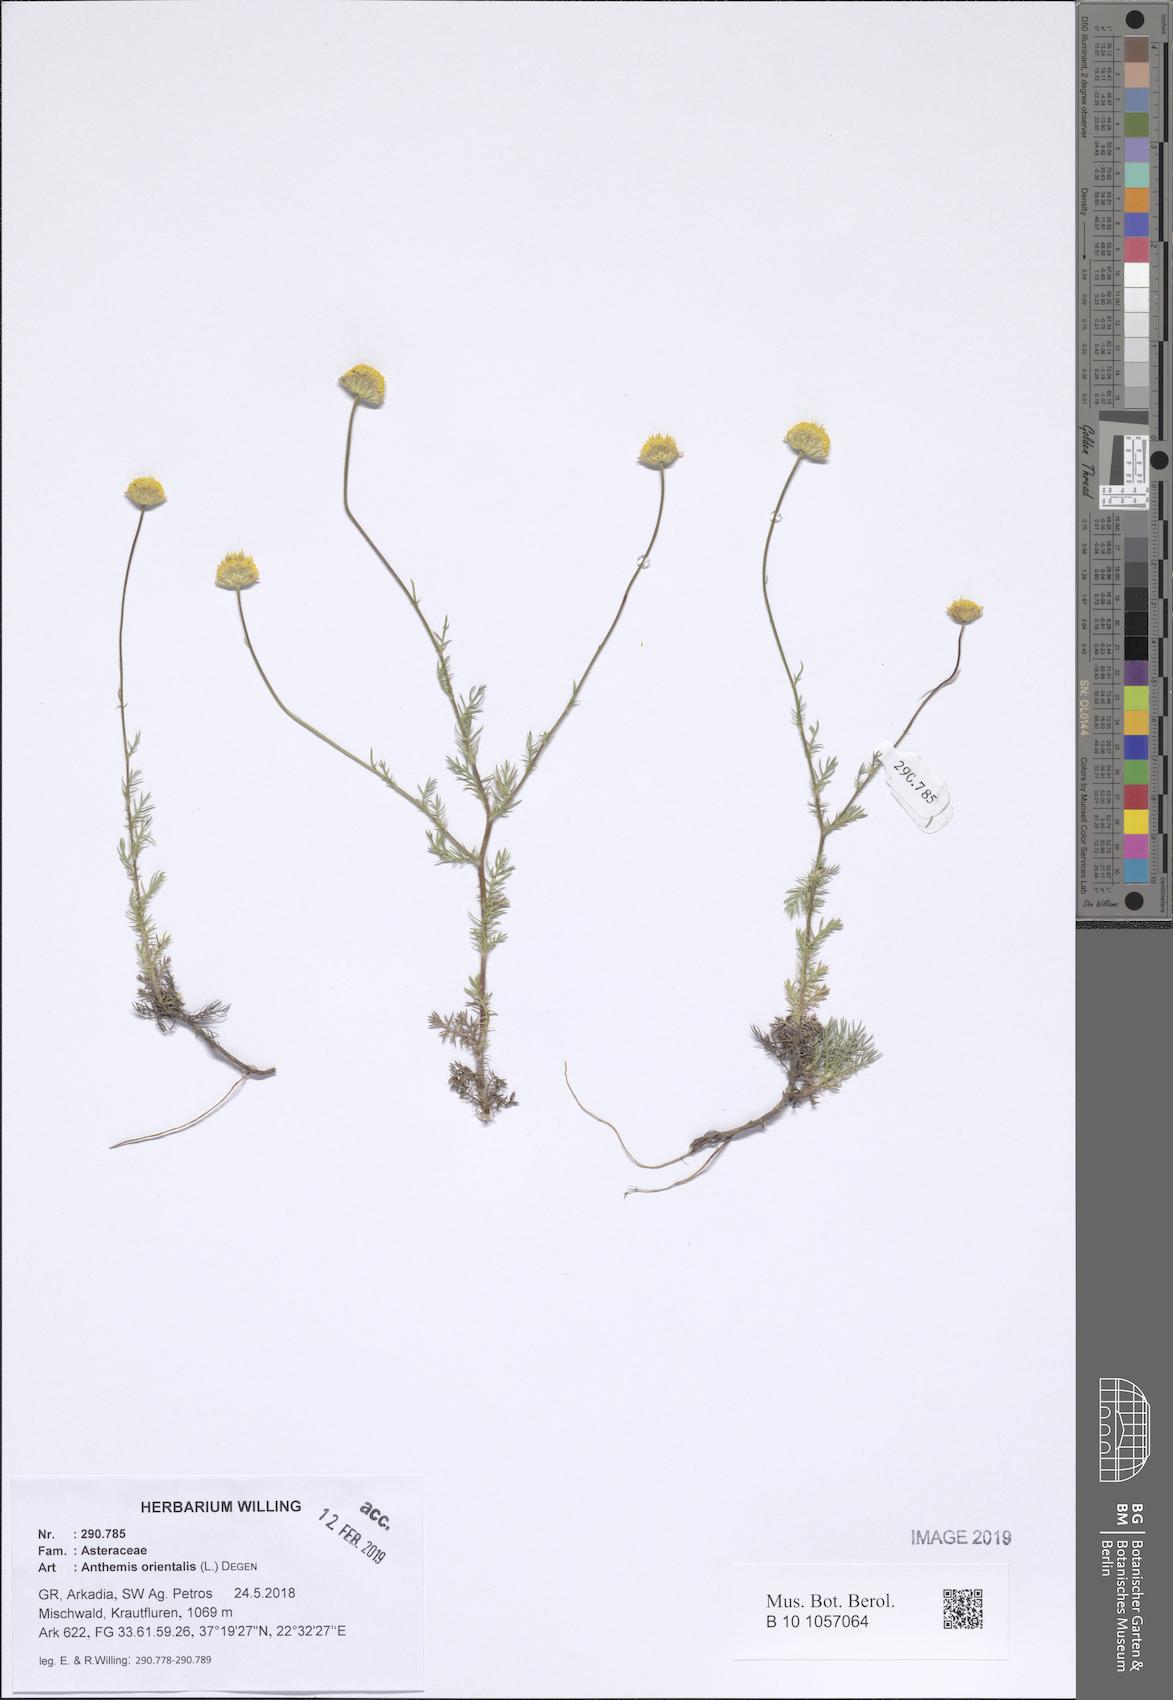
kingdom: Plantae
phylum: Tracheophyta
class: Magnoliopsida
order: Asterales
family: Asteraceae
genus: Anthemis
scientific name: Anthemis orientalis
